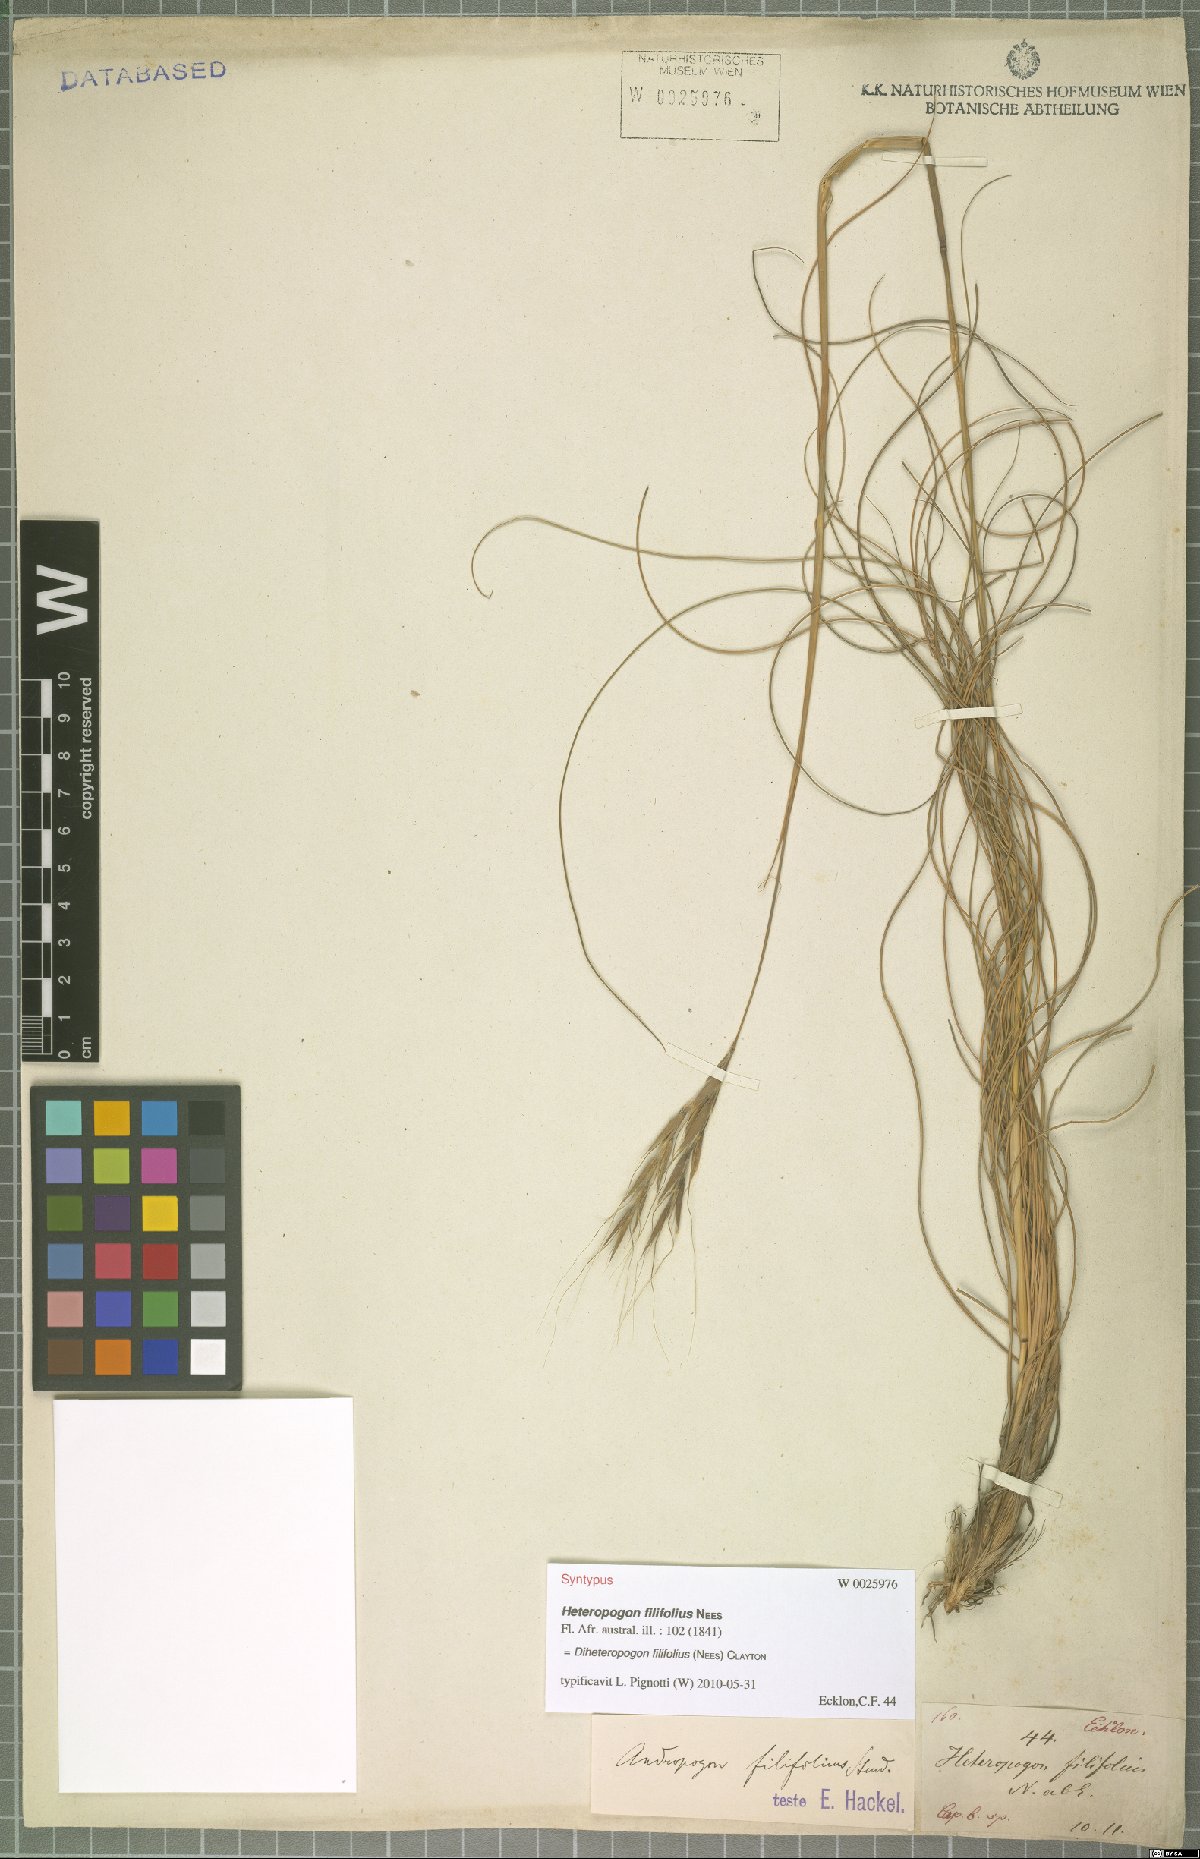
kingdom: Plantae
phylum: Tracheophyta
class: Liliopsida
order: Poales
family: Poaceae
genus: Diheteropogon
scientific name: Diheteropogon filifolius
